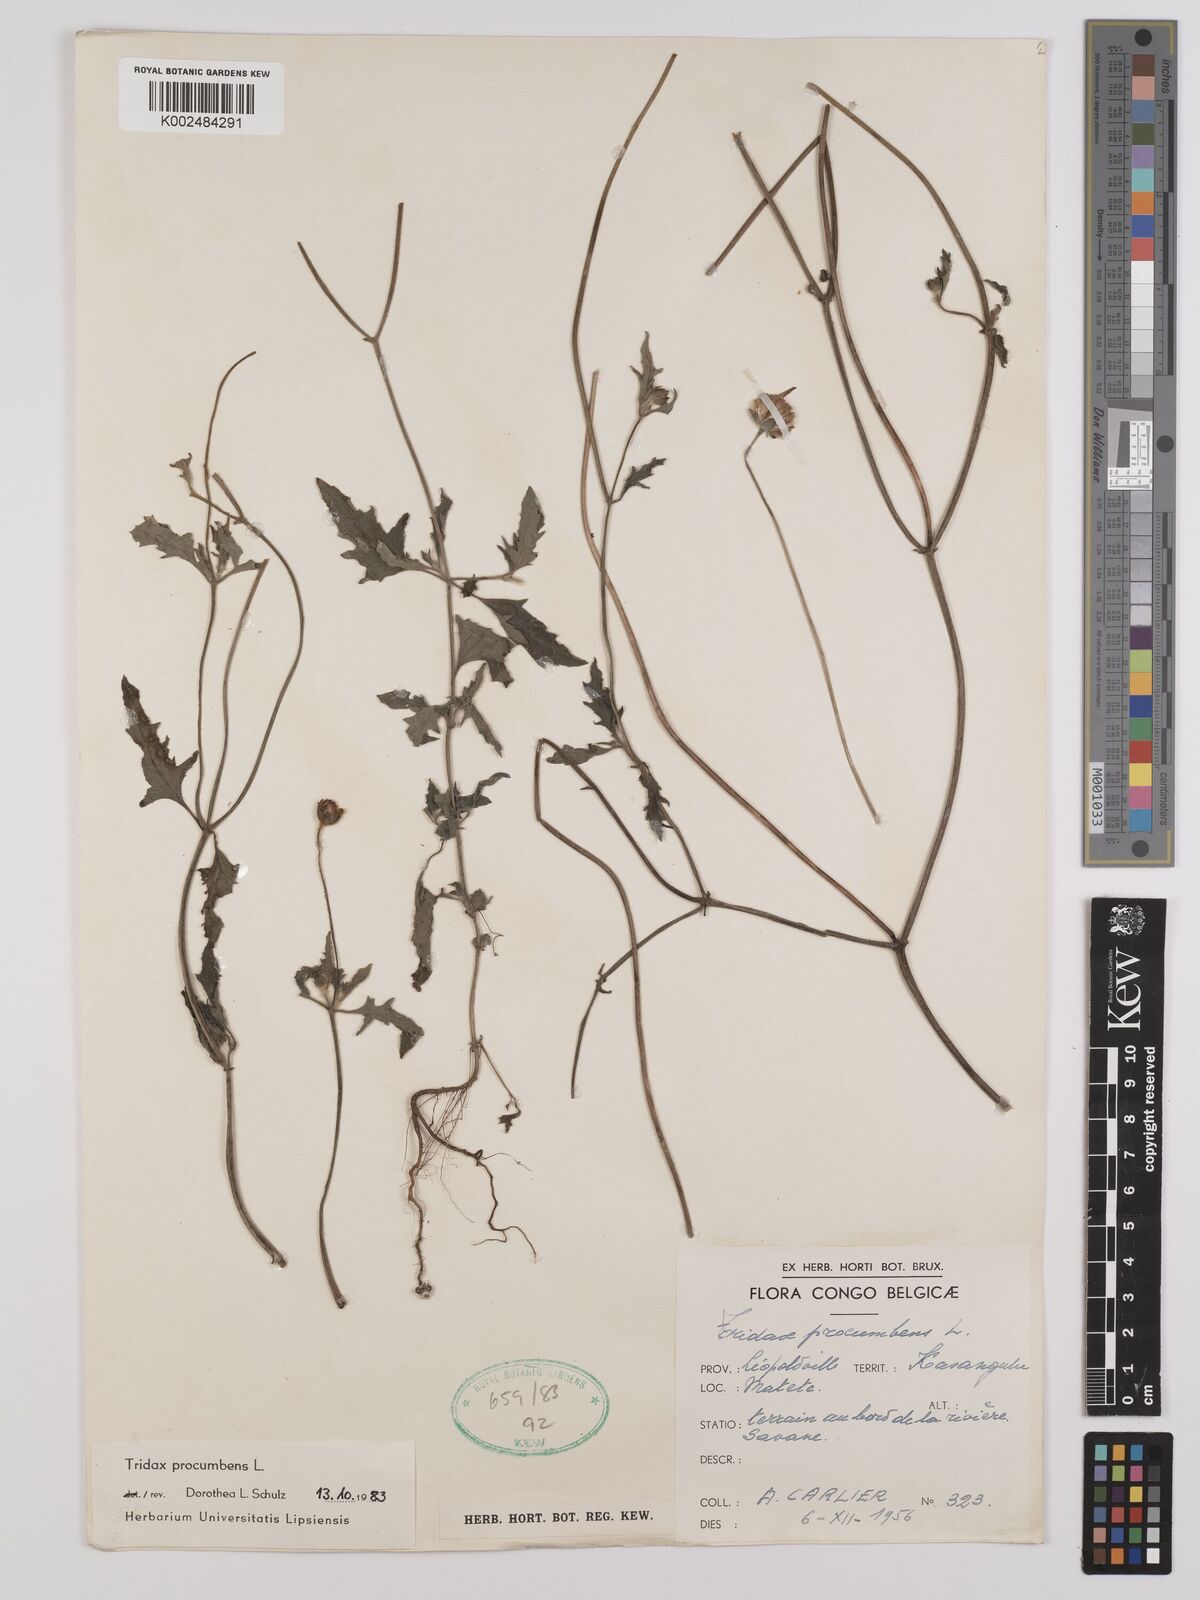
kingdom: Plantae
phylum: Tracheophyta
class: Magnoliopsida
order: Asterales
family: Asteraceae
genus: Tridax
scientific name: Tridax procumbens
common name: Coatbuttons
